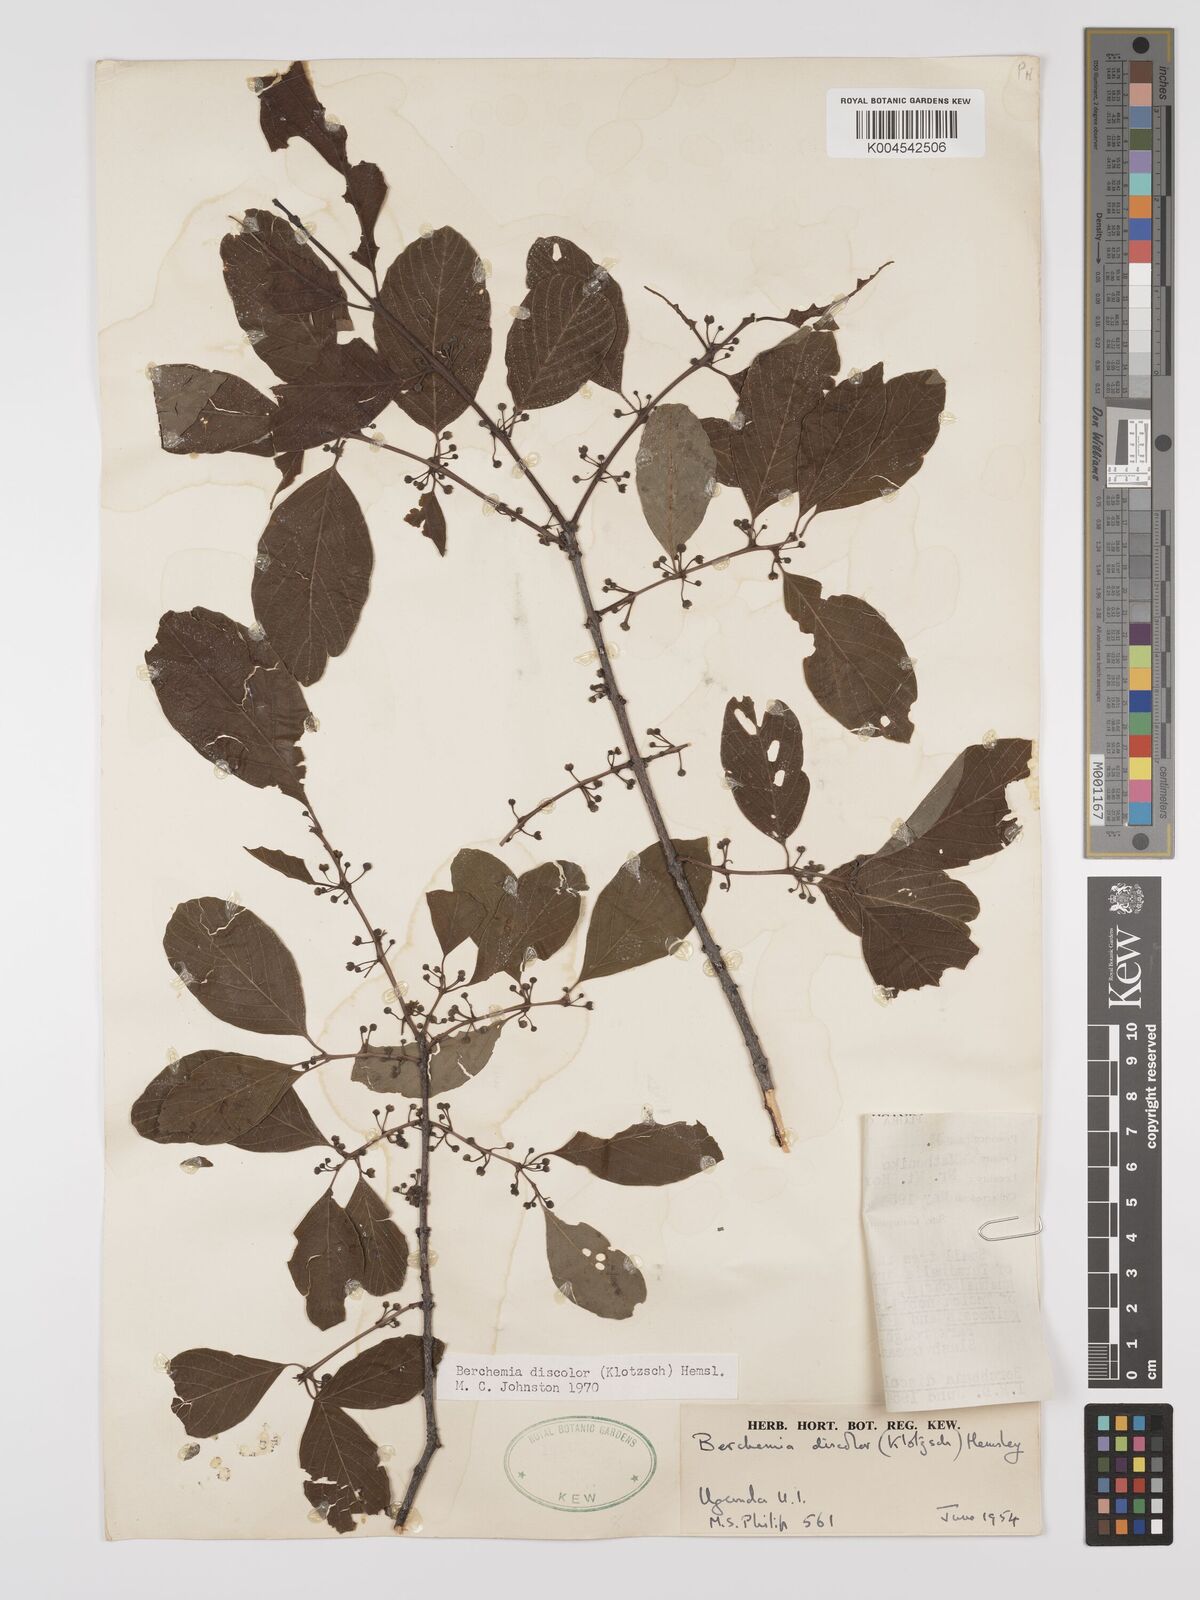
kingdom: Plantae
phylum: Tracheophyta
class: Magnoliopsida
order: Rosales
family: Rhamnaceae
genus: Phyllogeiton
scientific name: Phyllogeiton discolor
